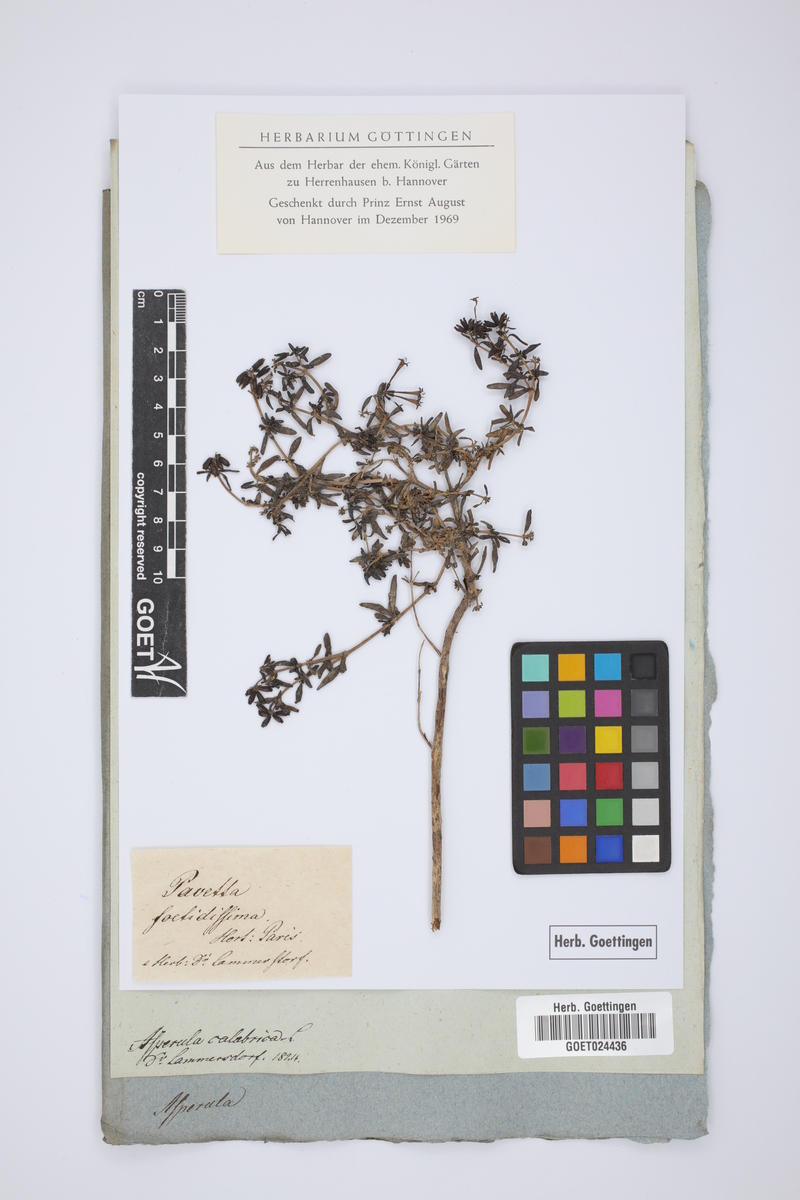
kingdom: Plantae
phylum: Tracheophyta
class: Magnoliopsida
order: Gentianales
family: Rubiaceae
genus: Plocama
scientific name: Plocama calabrica
